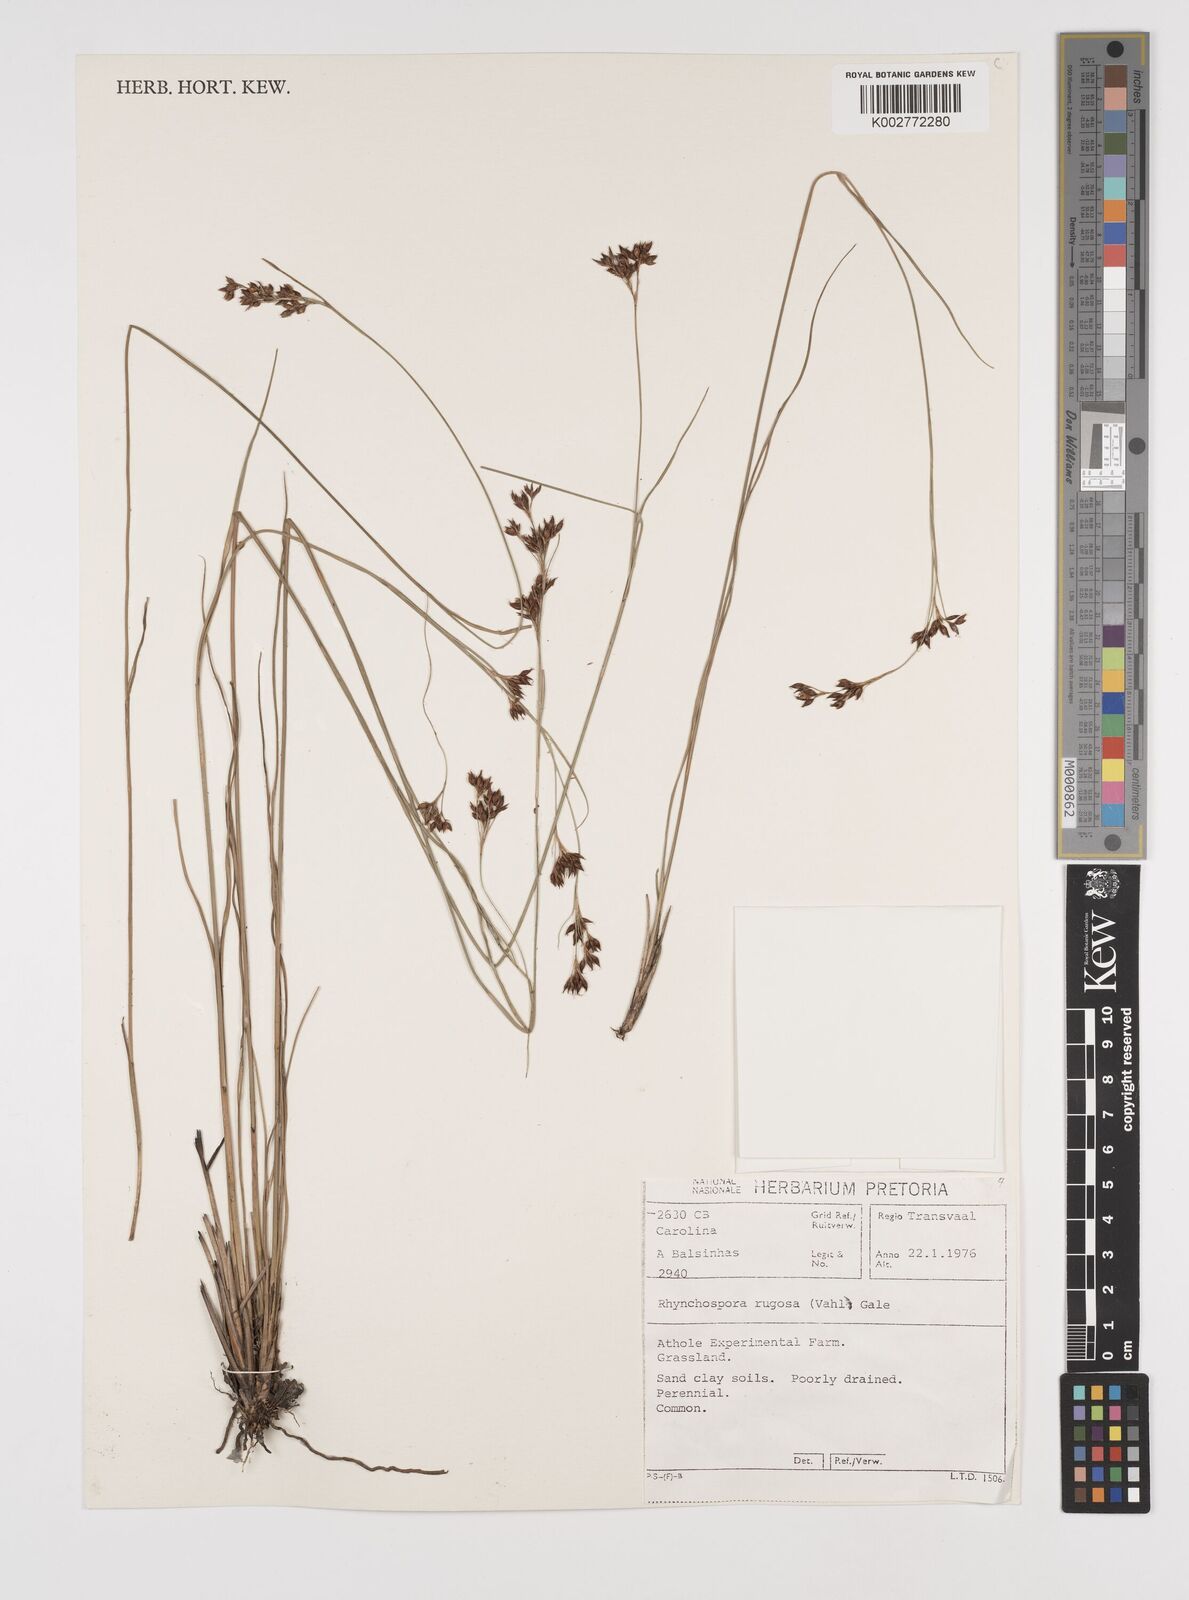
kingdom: Plantae
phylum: Tracheophyta
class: Liliopsida
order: Poales
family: Cyperaceae
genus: Rhynchospora
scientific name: Rhynchospora rugosa
